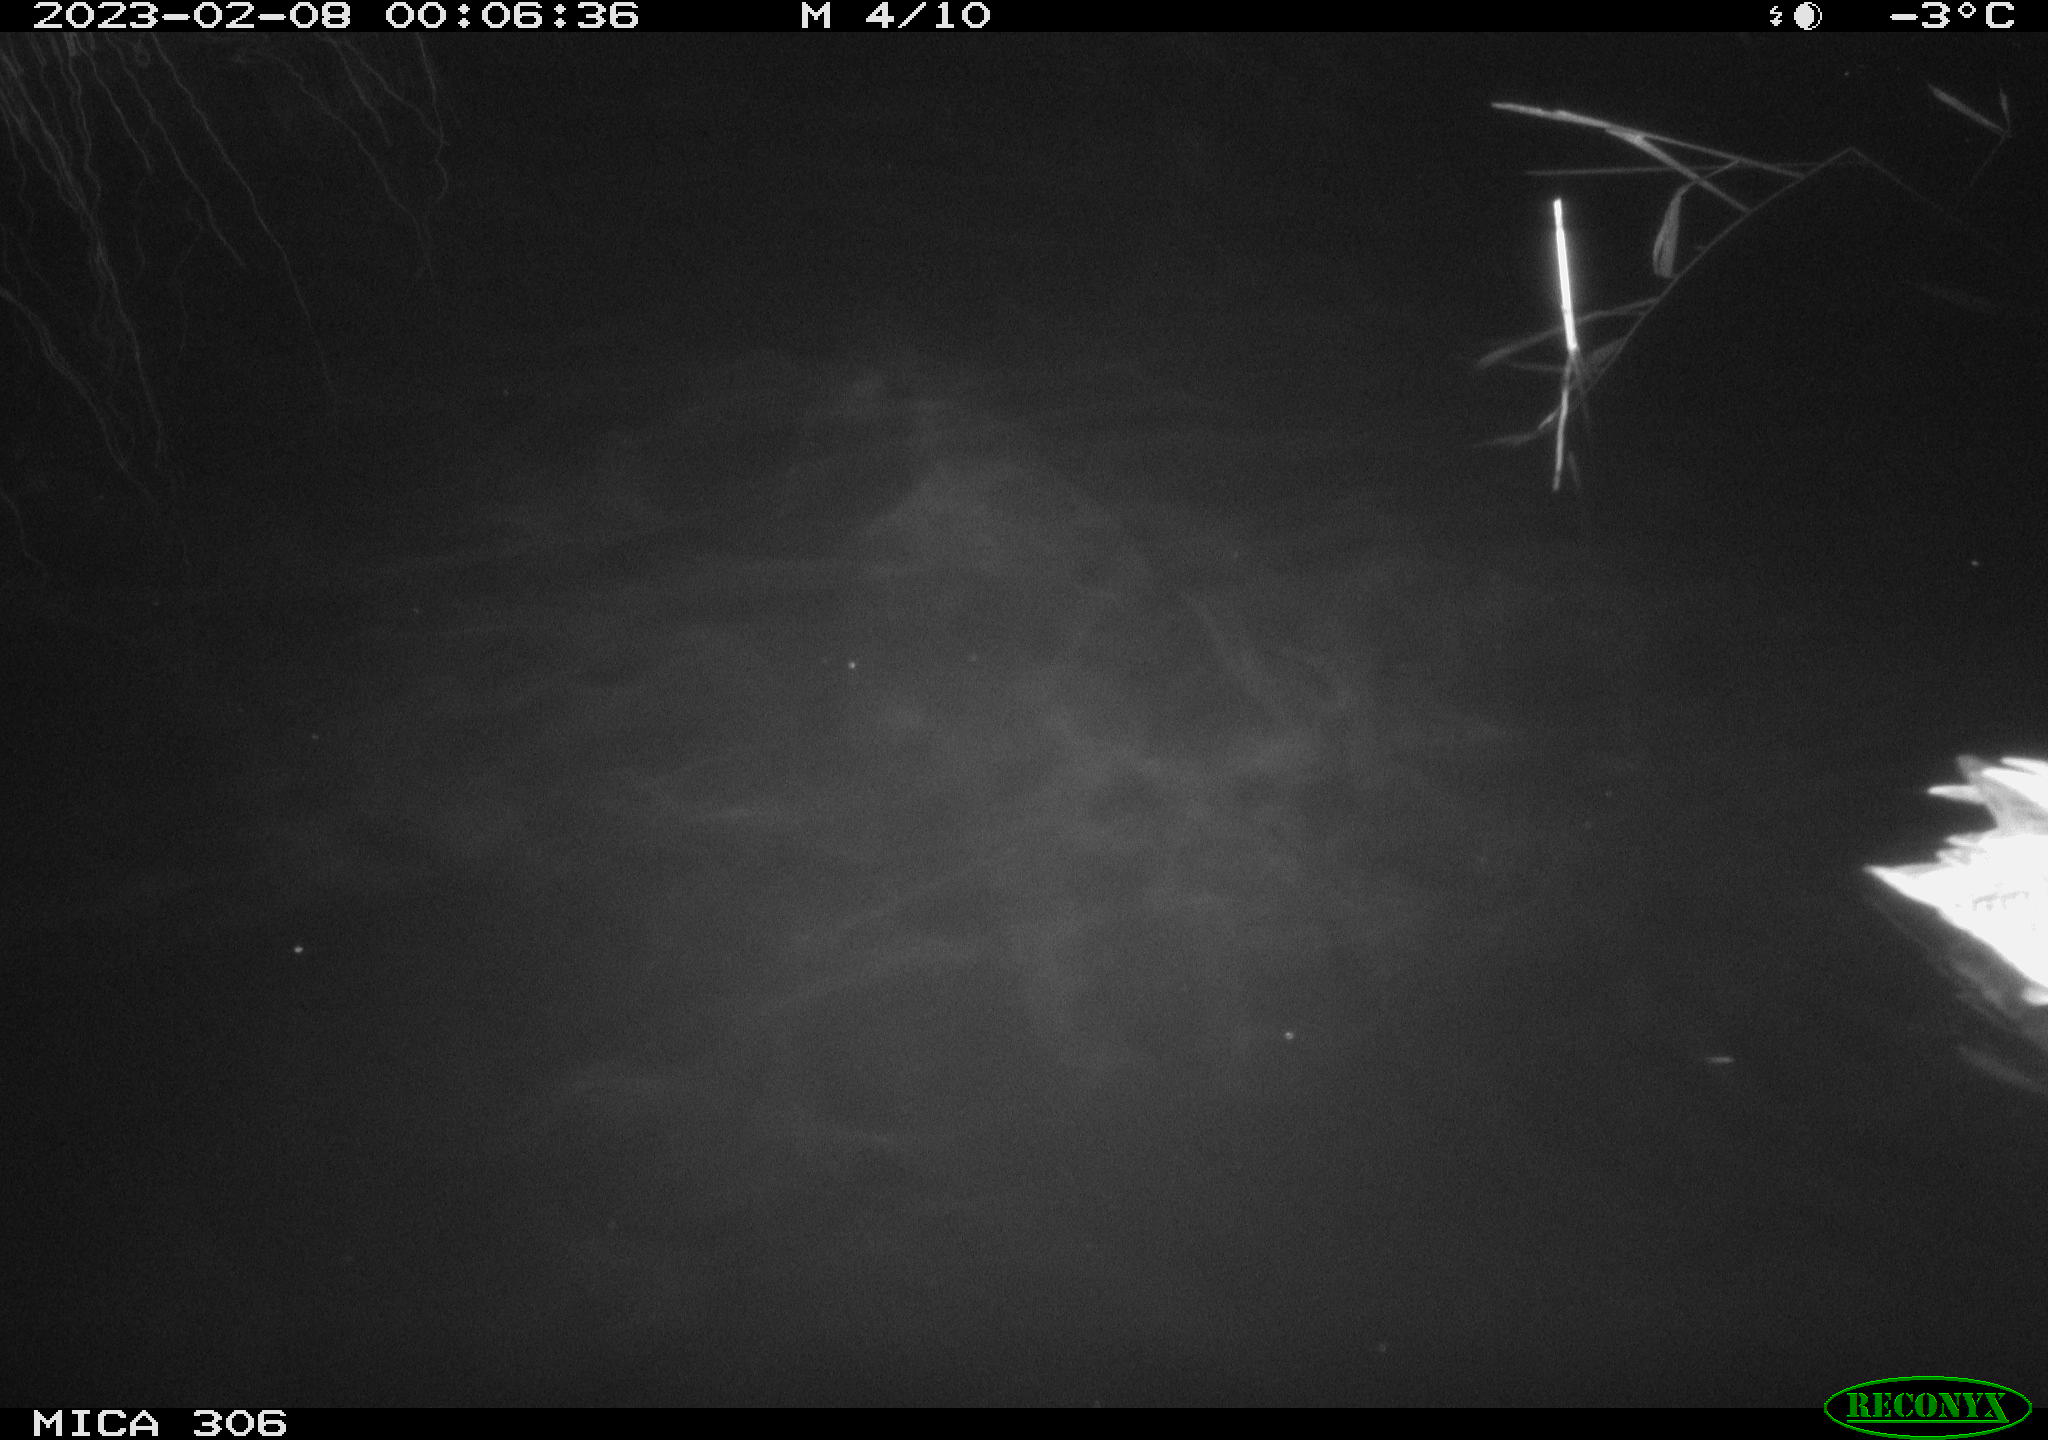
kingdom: Animalia
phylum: Chordata
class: Aves
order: Anseriformes
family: Anatidae
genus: Anas
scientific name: Anas
